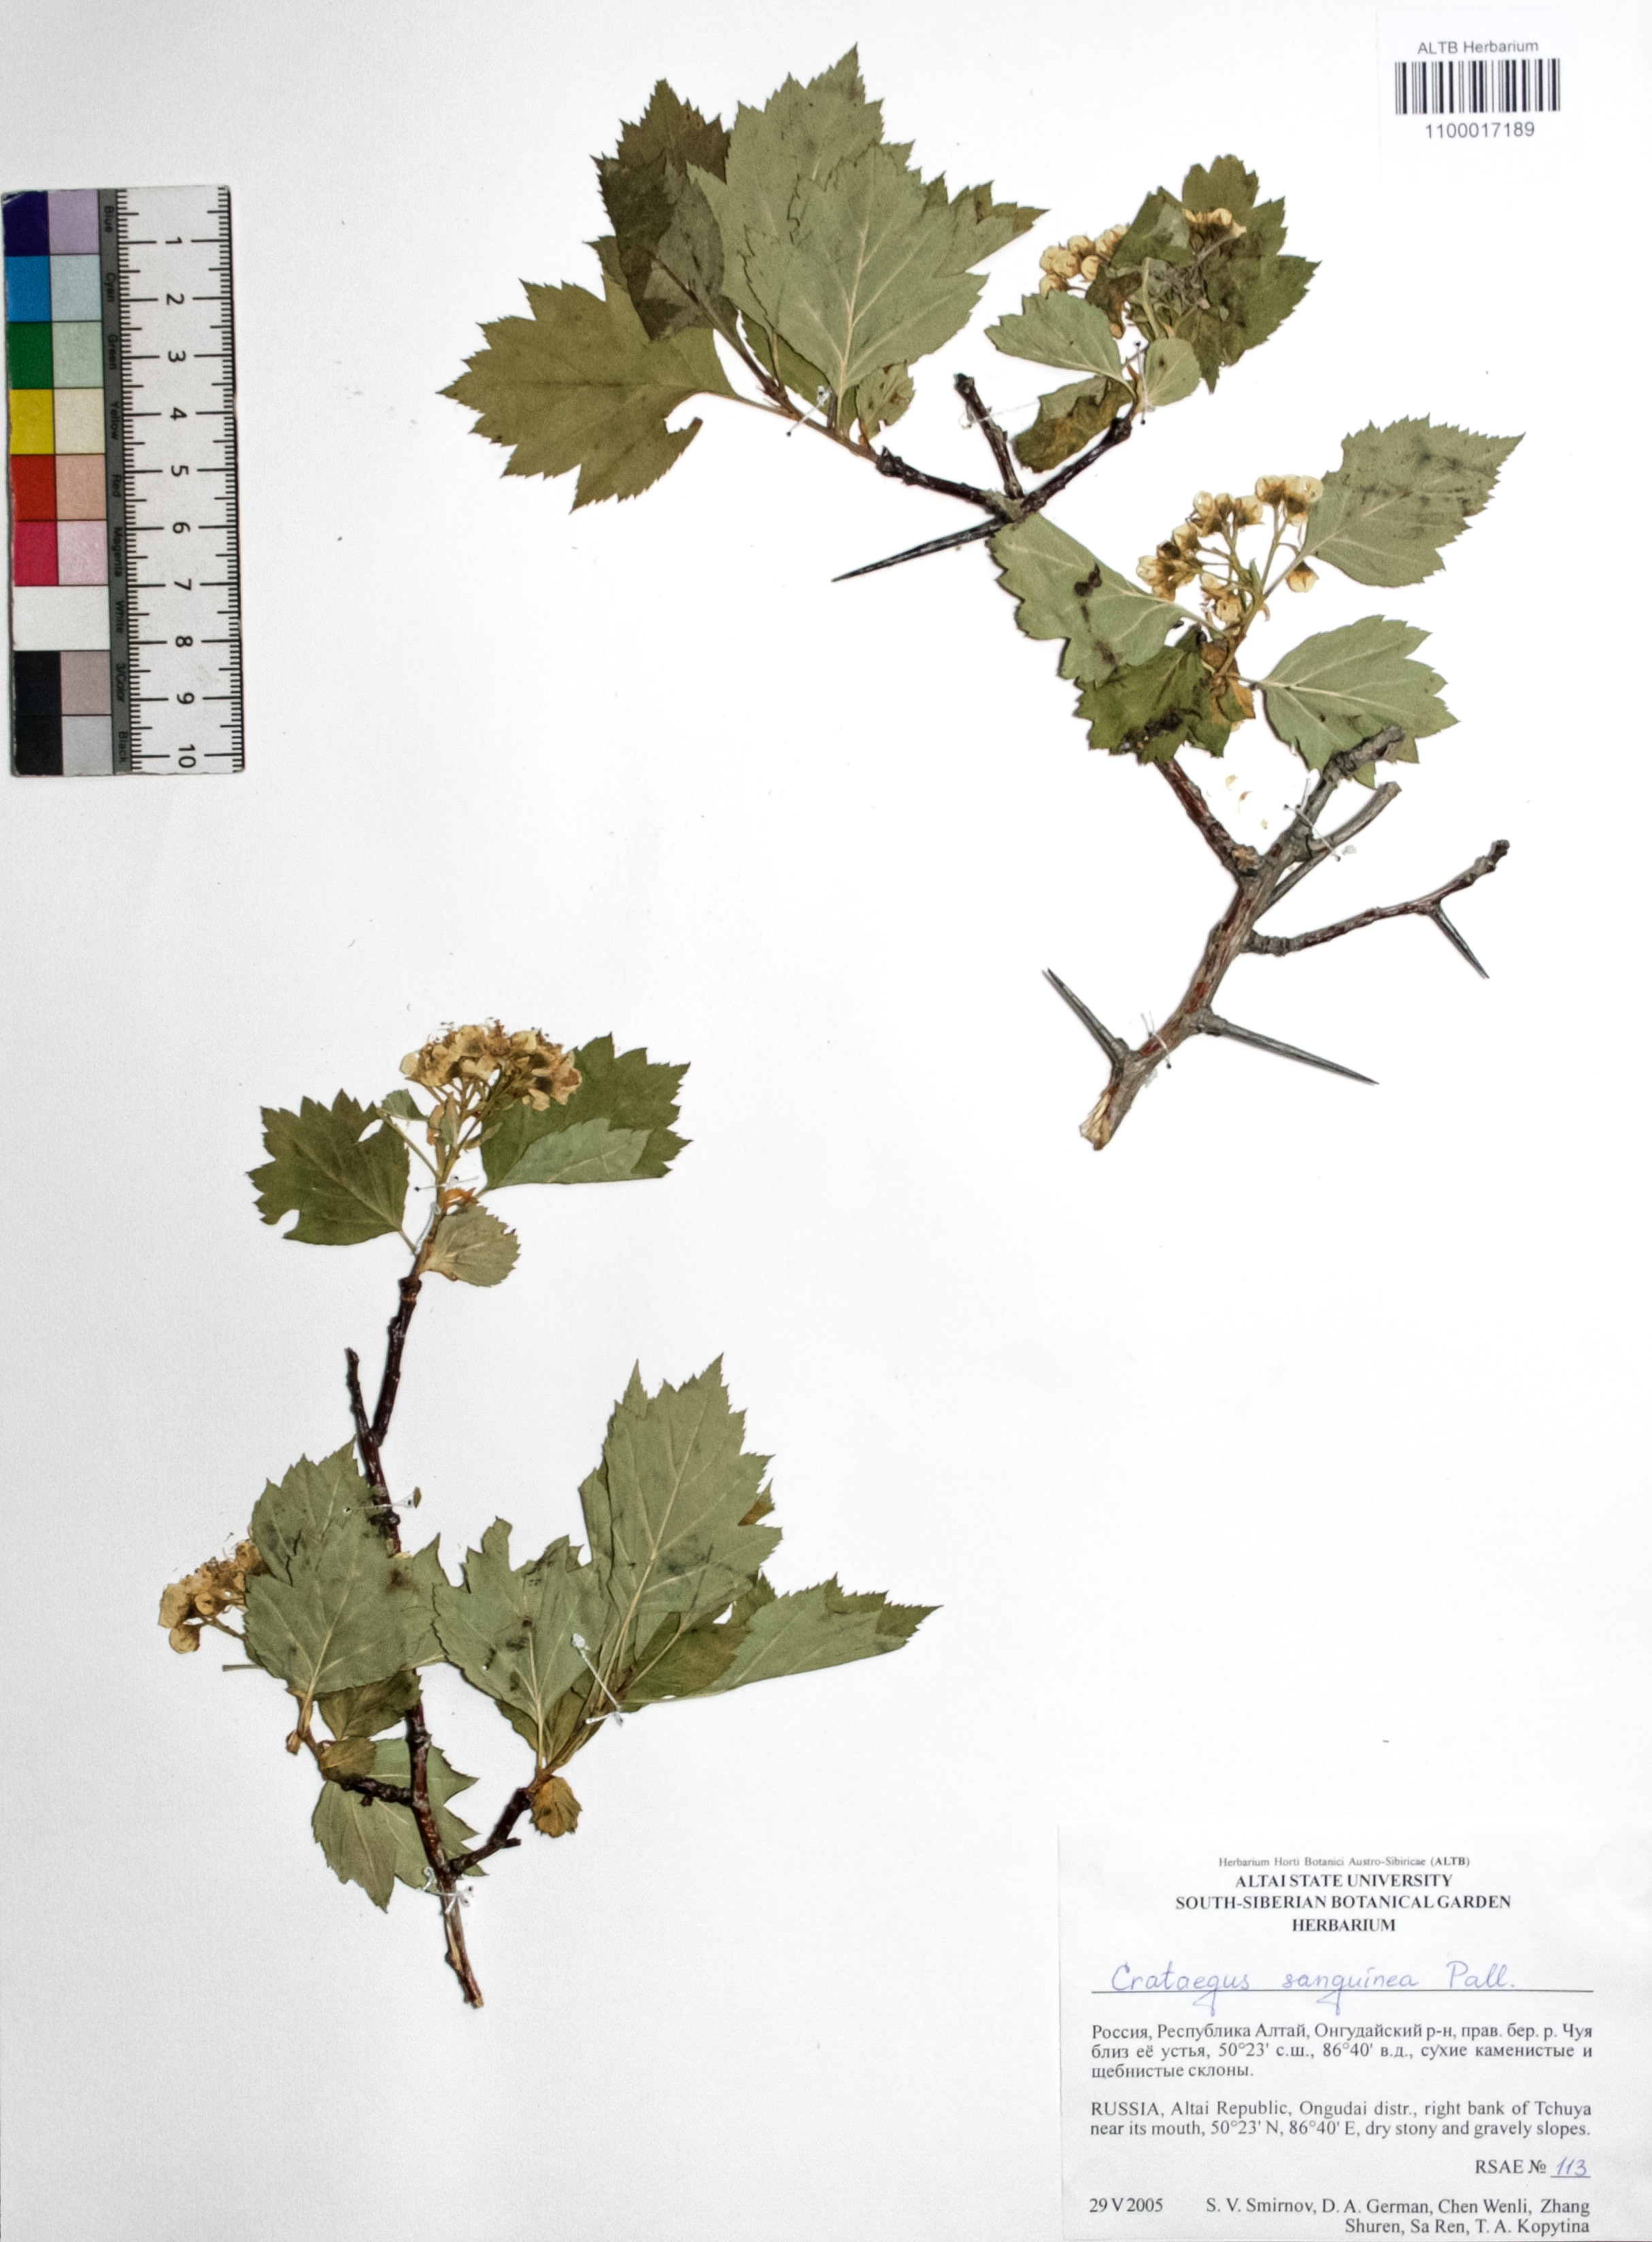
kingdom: Plantae
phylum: Tracheophyta
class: Magnoliopsida
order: Rosales
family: Rosaceae
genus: Crataegus
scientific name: Crataegus sanguinea
